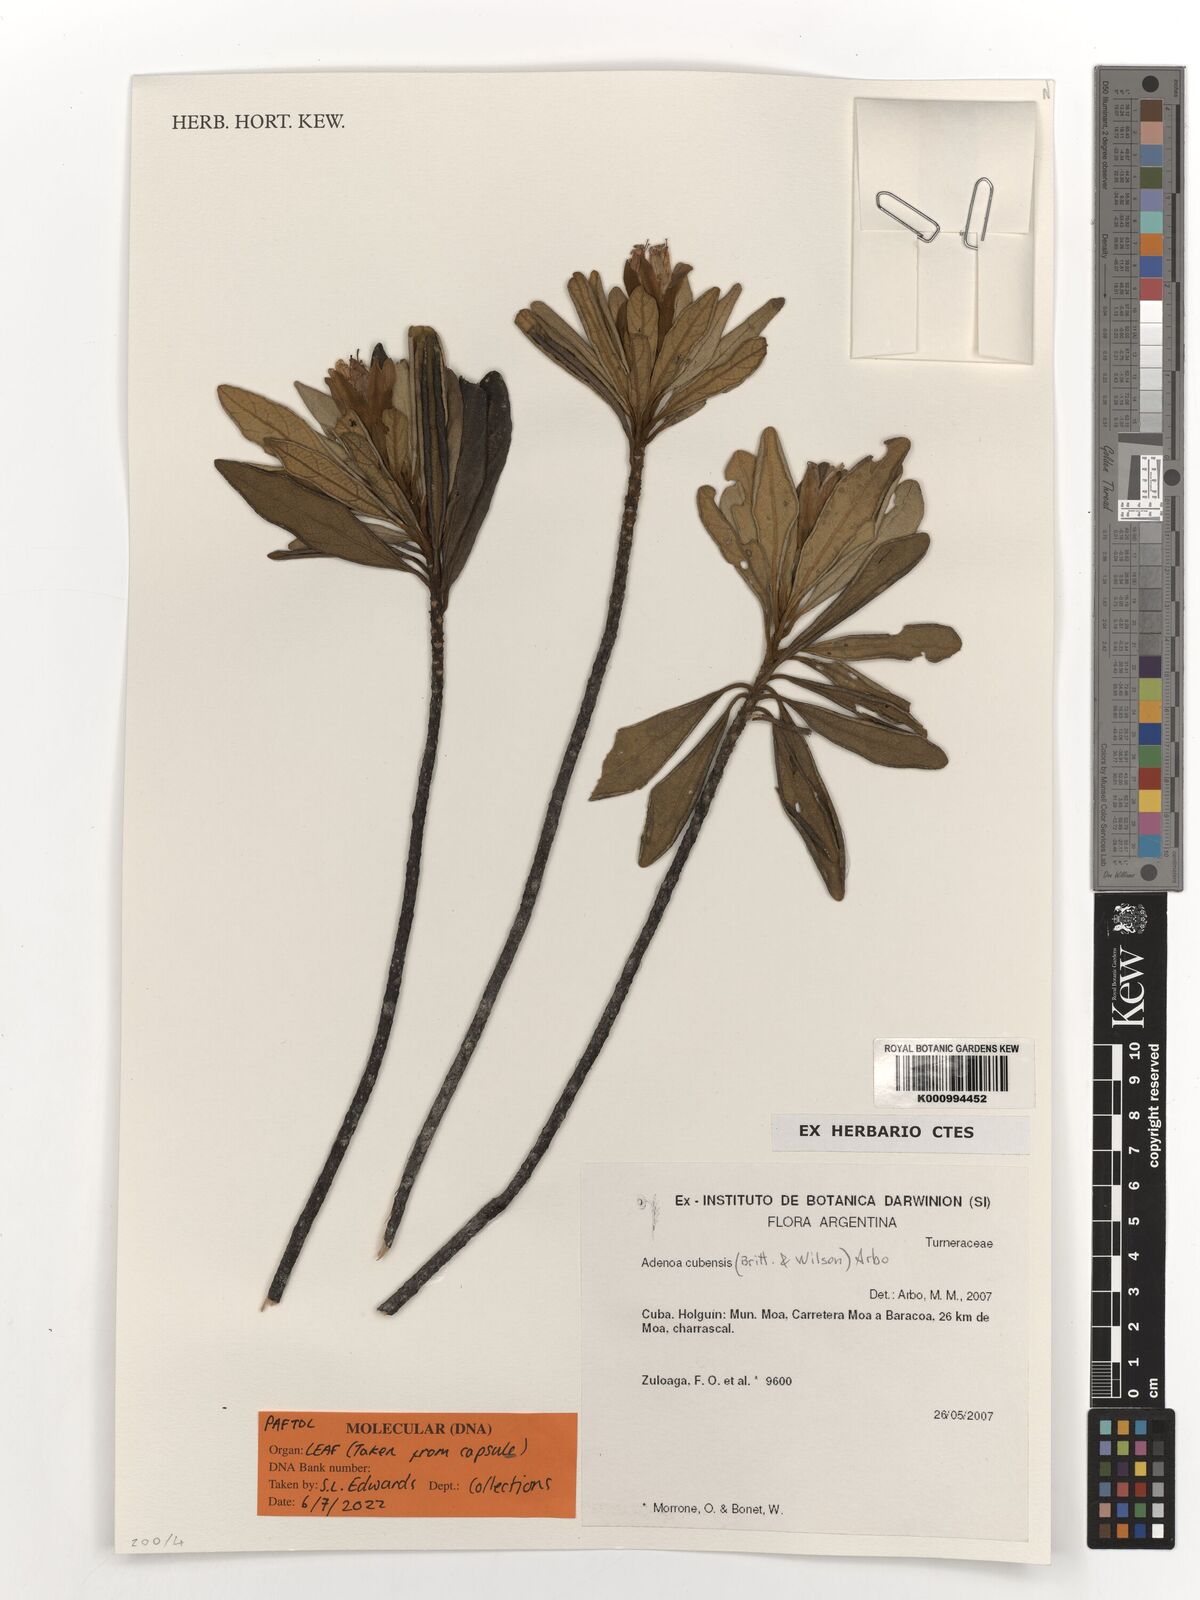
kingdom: Plantae
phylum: Tracheophyta
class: Magnoliopsida
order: Malpighiales
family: Turneraceae
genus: Adenoa
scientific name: Adenoa cubensis
